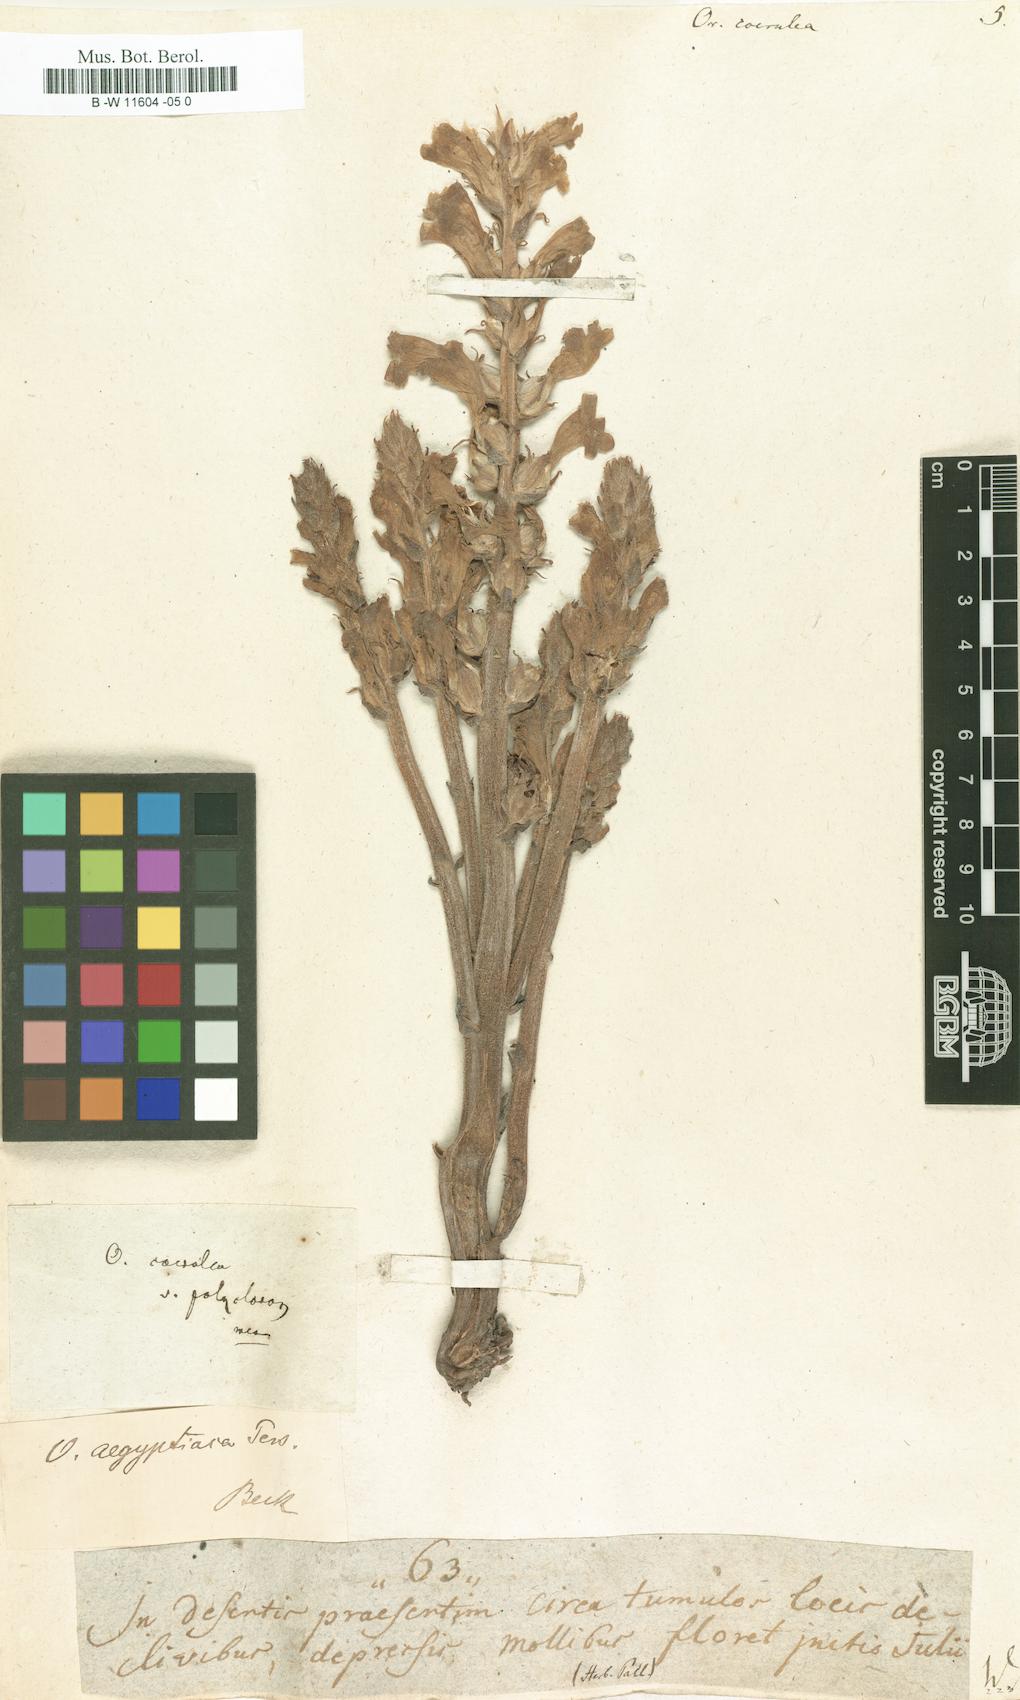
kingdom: Plantae
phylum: Tracheophyta
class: Magnoliopsida
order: Lamiales
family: Orobanchaceae
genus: Phelipanche
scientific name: Phelipanche purpurea
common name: Purple broomrape
